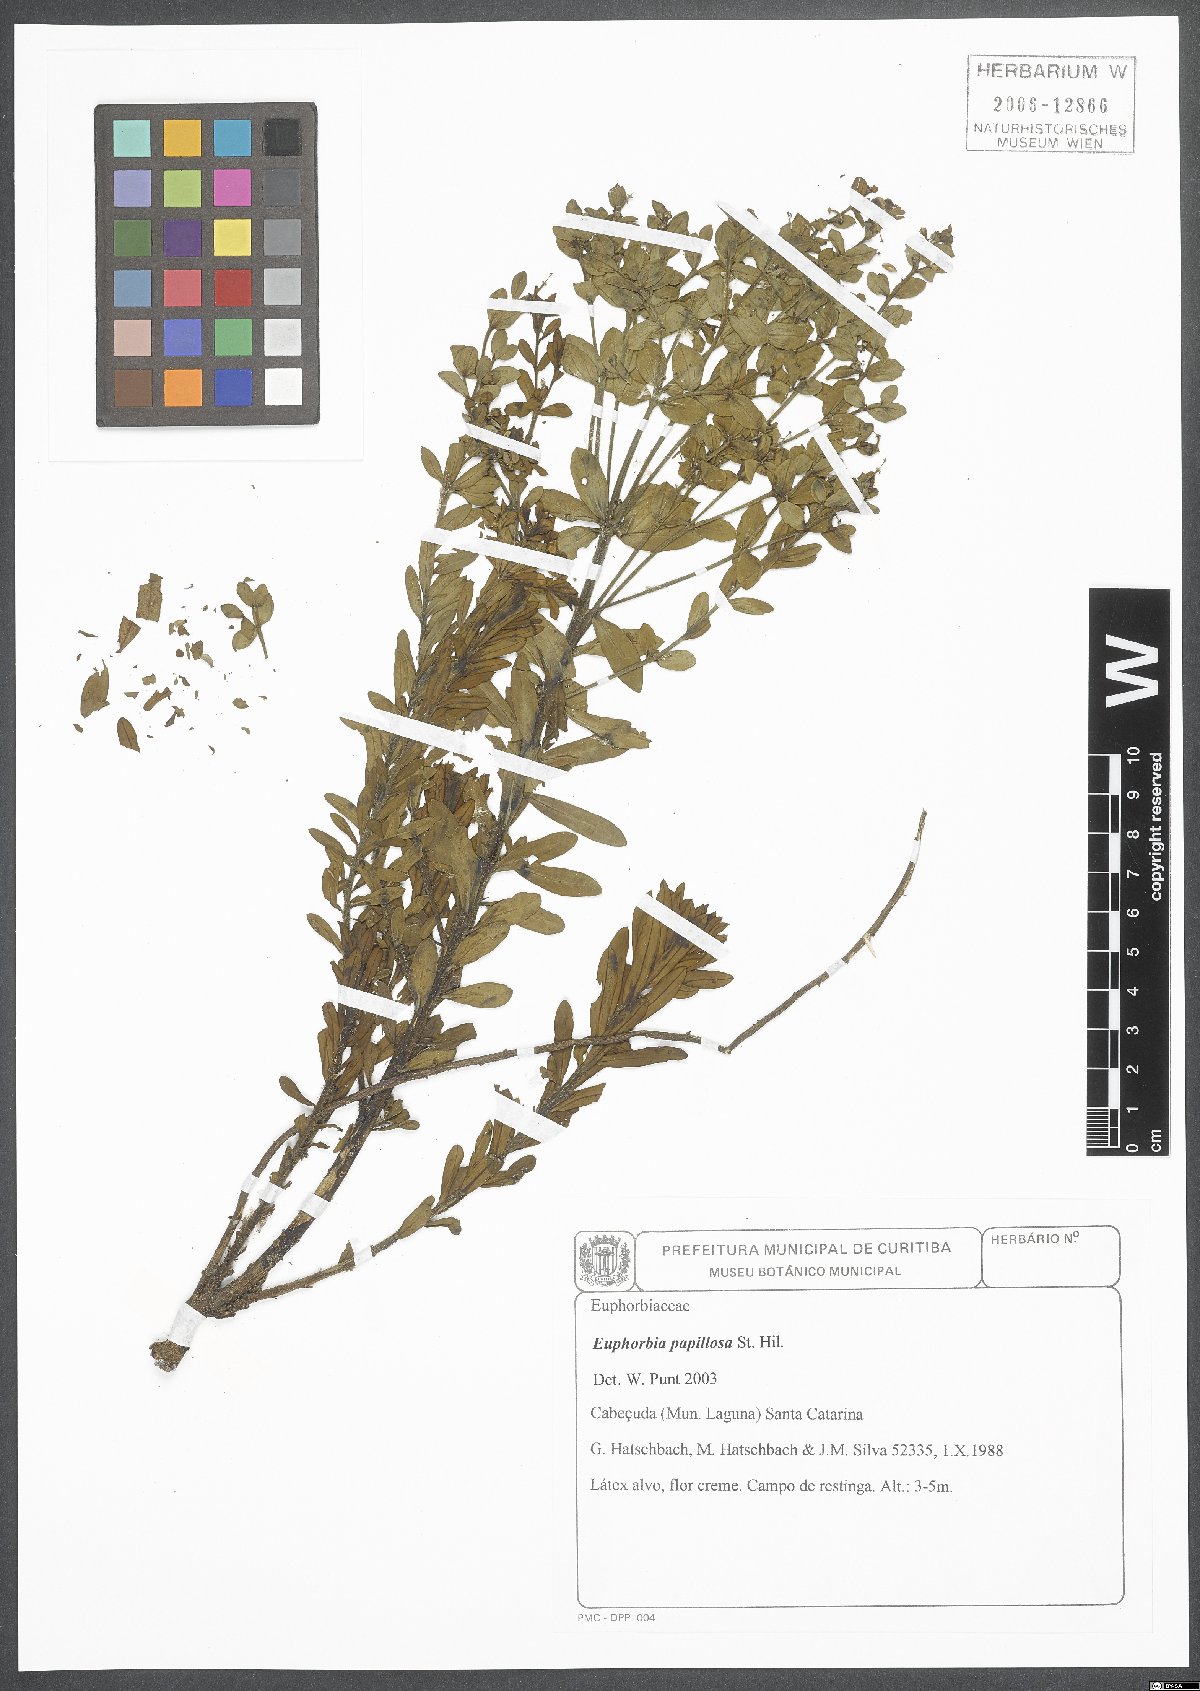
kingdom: Plantae
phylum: Tracheophyta
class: Magnoliopsida
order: Malpighiales
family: Euphorbiaceae
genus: Euphorbia
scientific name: Euphorbia papillosa
